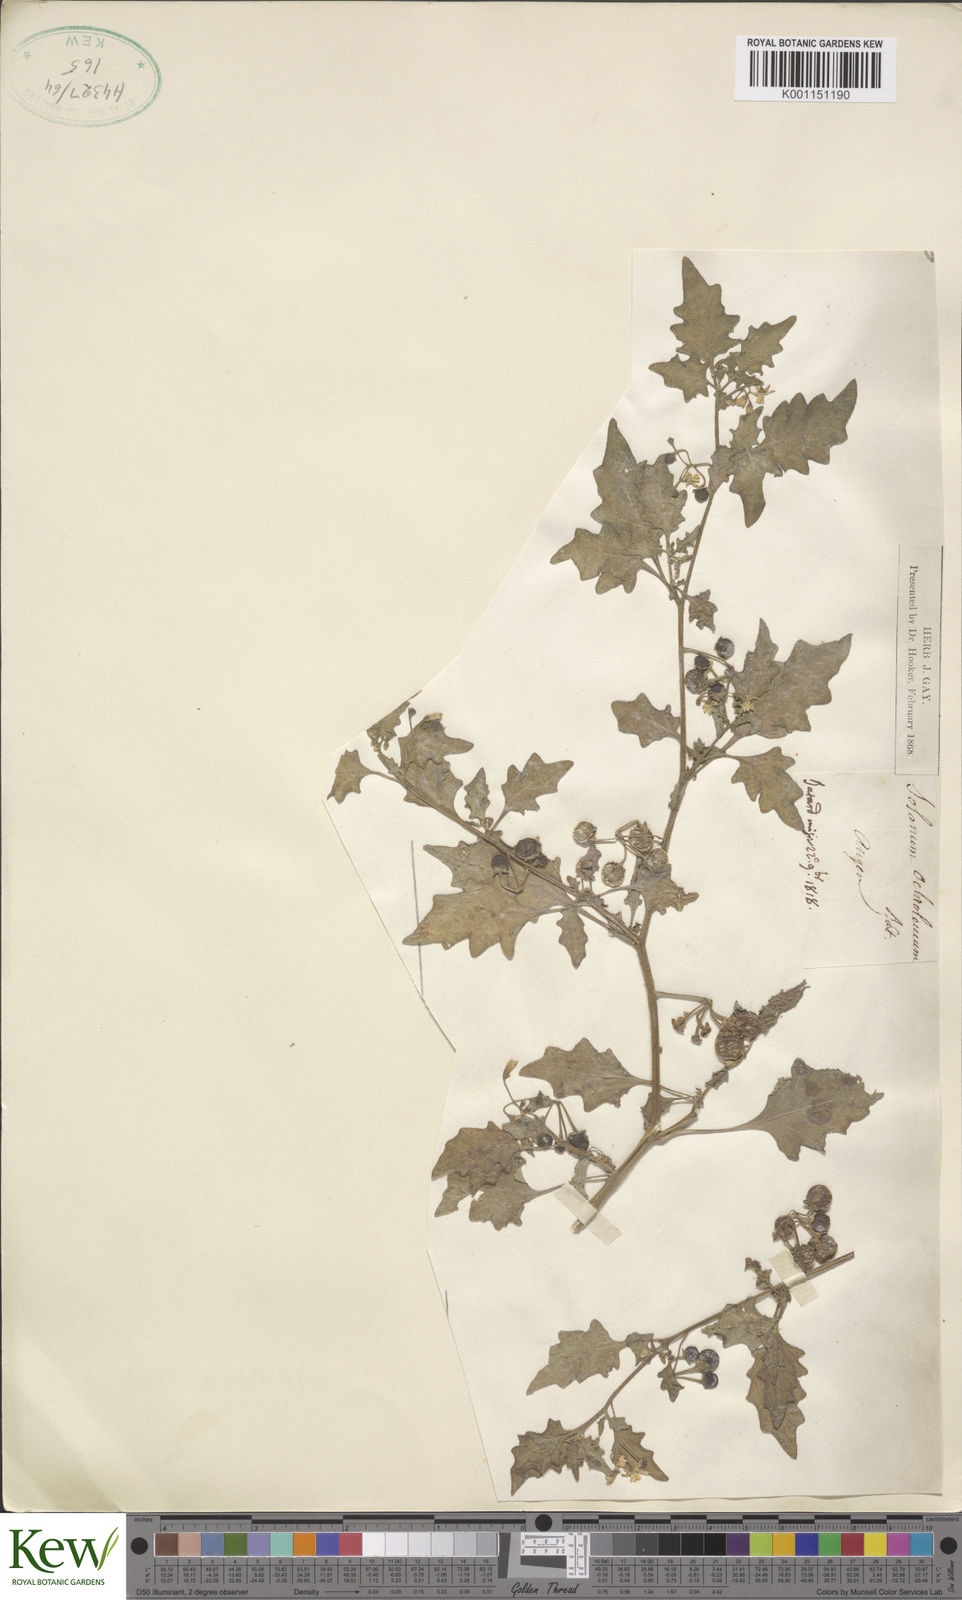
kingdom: Plantae
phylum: Tracheophyta
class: Magnoliopsida
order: Solanales
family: Solanaceae
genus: Solanum
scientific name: Solanum villosum
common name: Red nightshade
